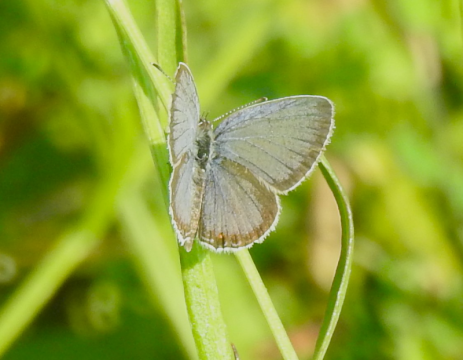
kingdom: Animalia
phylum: Arthropoda
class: Insecta
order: Lepidoptera
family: Lycaenidae
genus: Elkalyce
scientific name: Elkalyce comyntas
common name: Eastern Tailed-Blue
